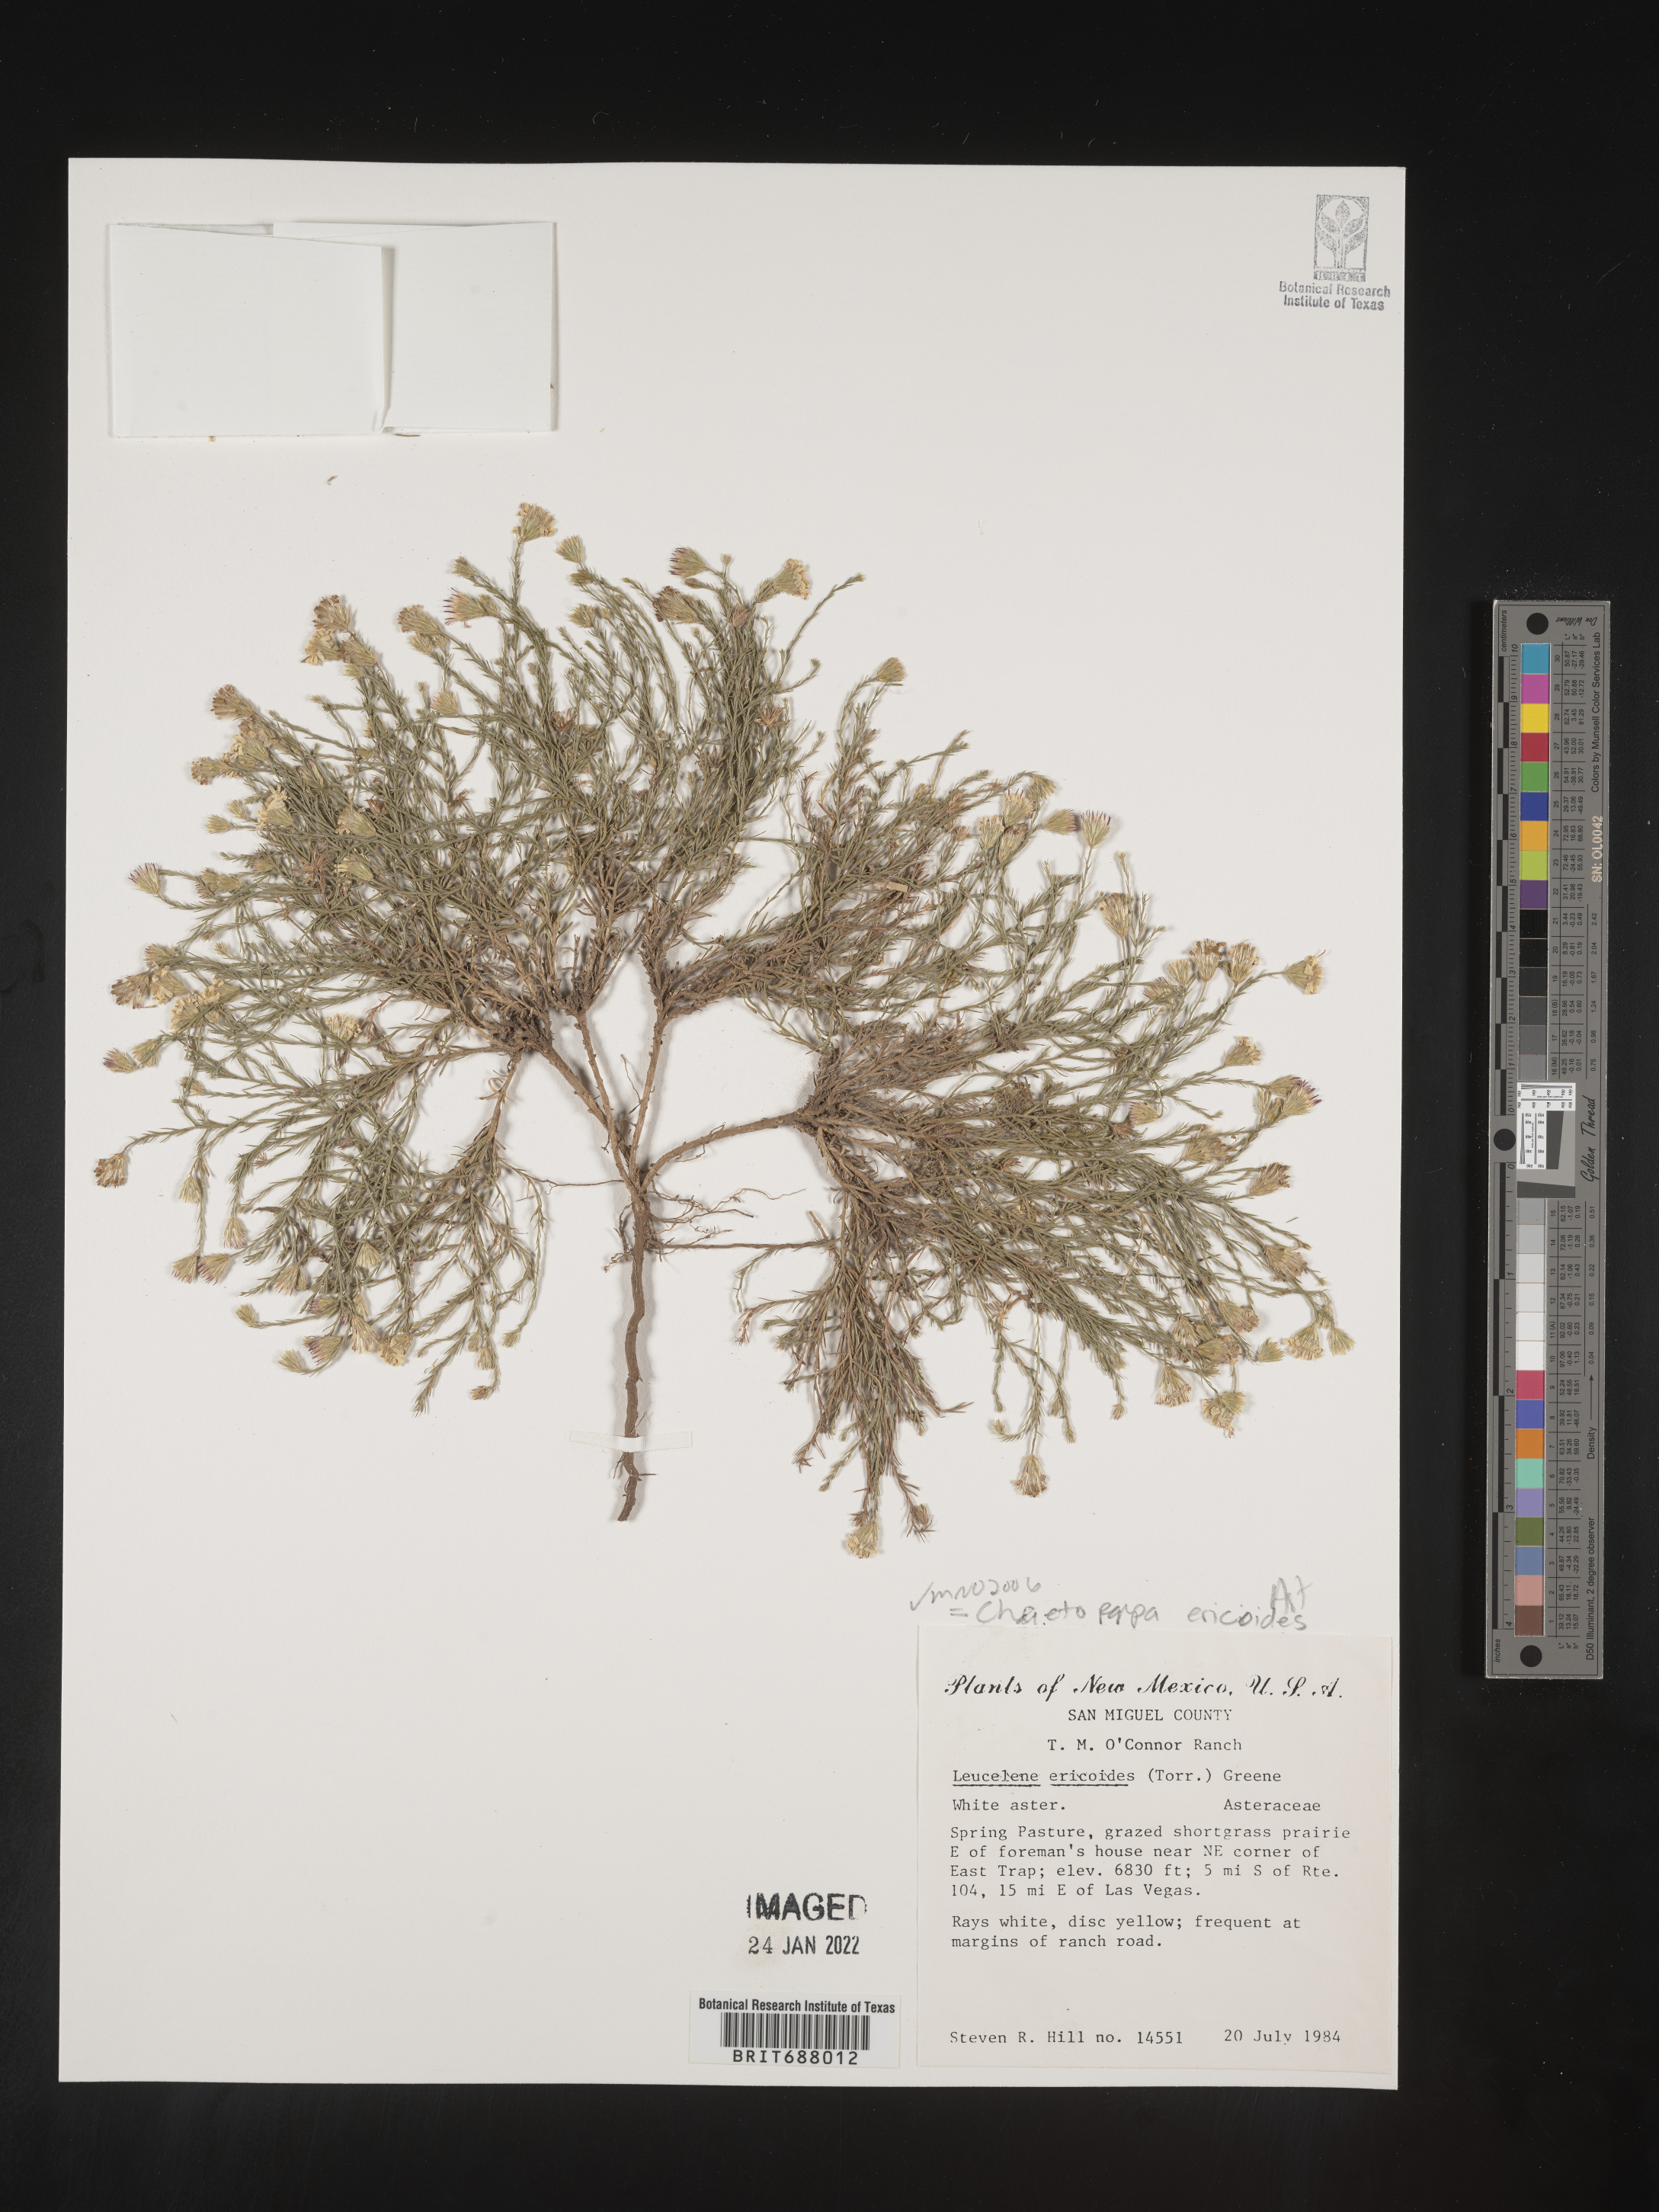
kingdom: Plantae
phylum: Tracheophyta
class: Magnoliopsida
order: Asterales
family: Asteraceae
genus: Chaetopappa
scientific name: Chaetopappa ericoides
